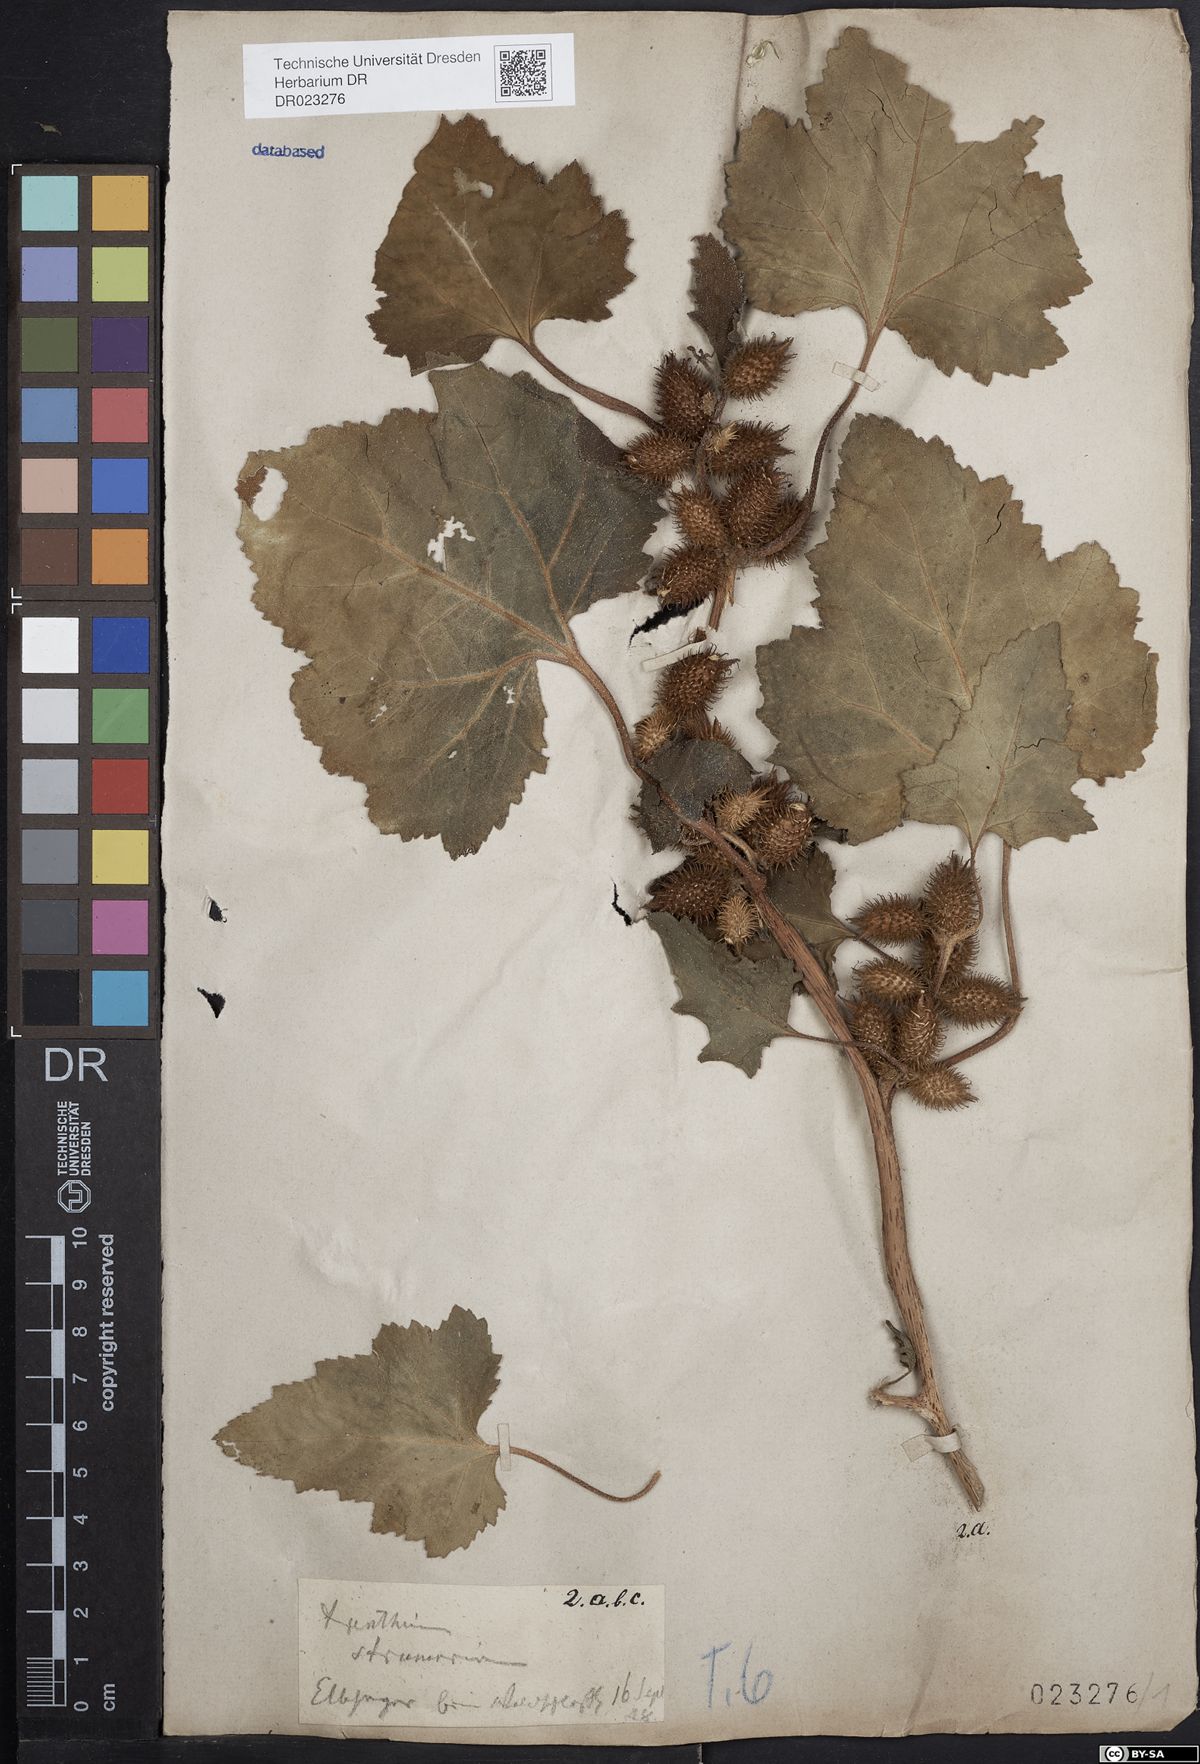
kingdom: Plantae
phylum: Tracheophyta
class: Magnoliopsida
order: Asterales
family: Asteraceae
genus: Xanthium
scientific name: Xanthium orientale
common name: Californian burr
